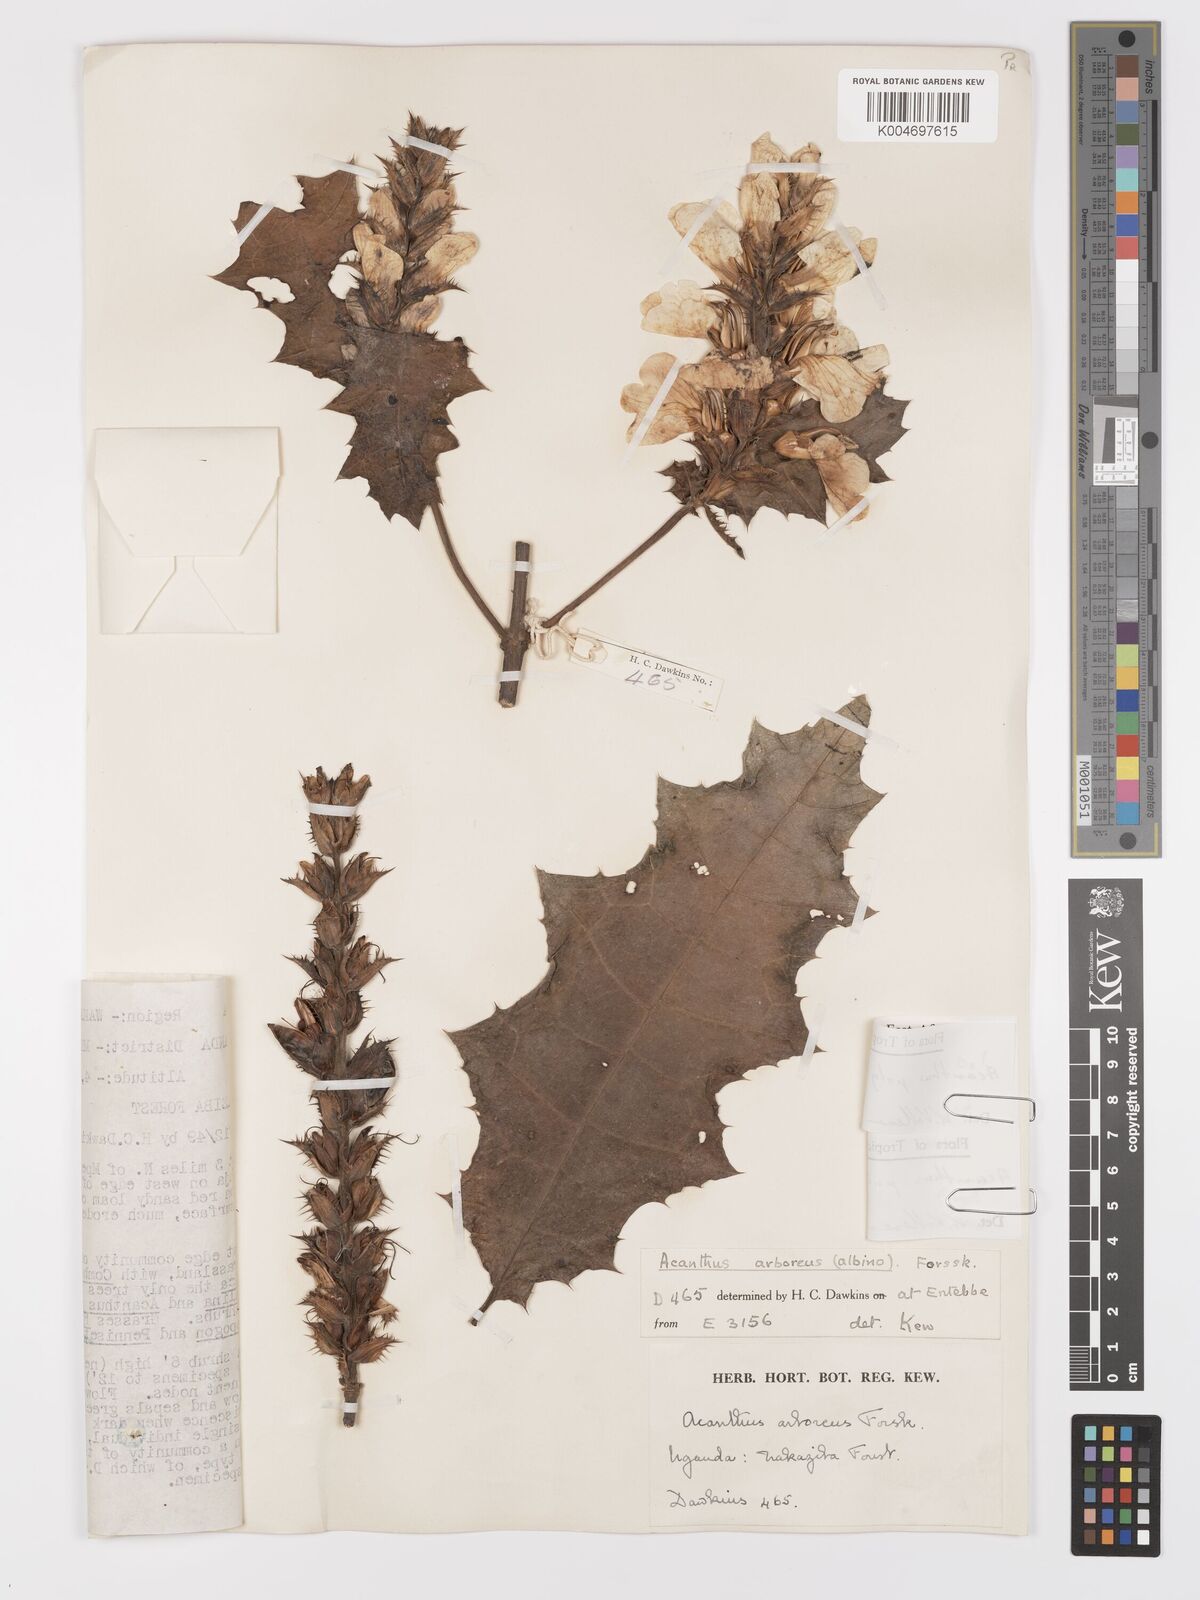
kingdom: Plantae
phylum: Tracheophyta
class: Magnoliopsida
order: Lamiales
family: Acanthaceae
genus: Acanthus
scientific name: Acanthus polystachyus
